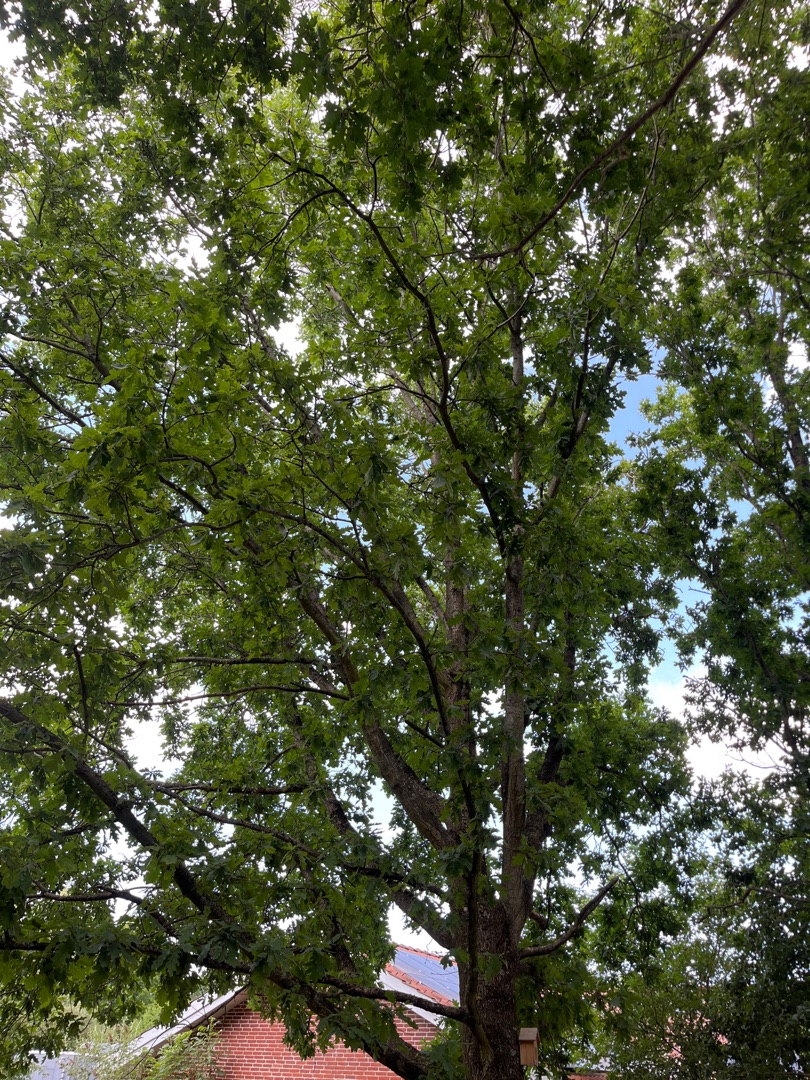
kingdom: Plantae
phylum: Tracheophyta
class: Magnoliopsida
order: Fagales
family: Fagaceae
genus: Quercus
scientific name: Quercus robur
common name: Stilk-eg/almindelig eg
